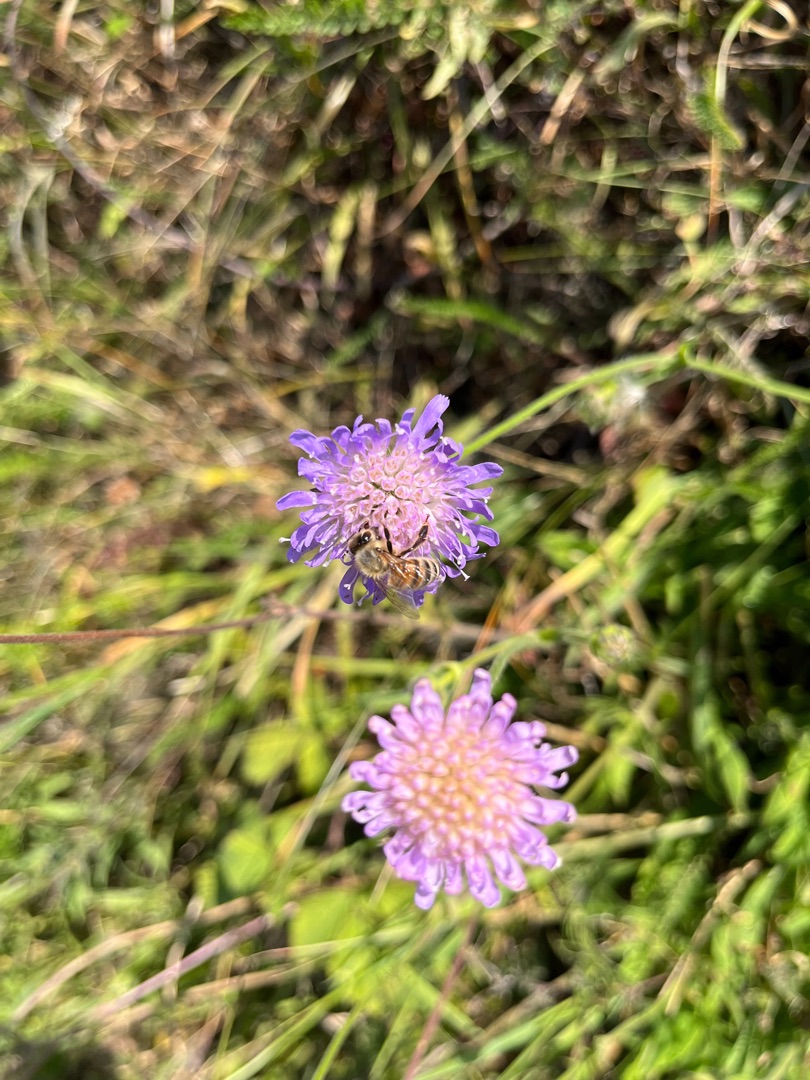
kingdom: Plantae
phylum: Tracheophyta
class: Magnoliopsida
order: Dipsacales
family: Caprifoliaceae
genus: Knautia
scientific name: Knautia arvensis
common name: Blåhat
